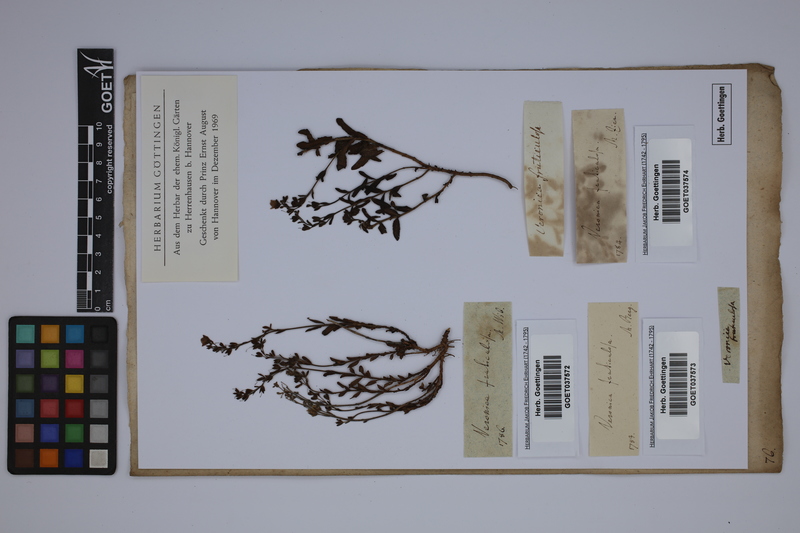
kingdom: Plantae
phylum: Tracheophyta
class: Magnoliopsida
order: Lamiales
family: Plantaginaceae
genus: Veronica
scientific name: Veronica fruticulosa
